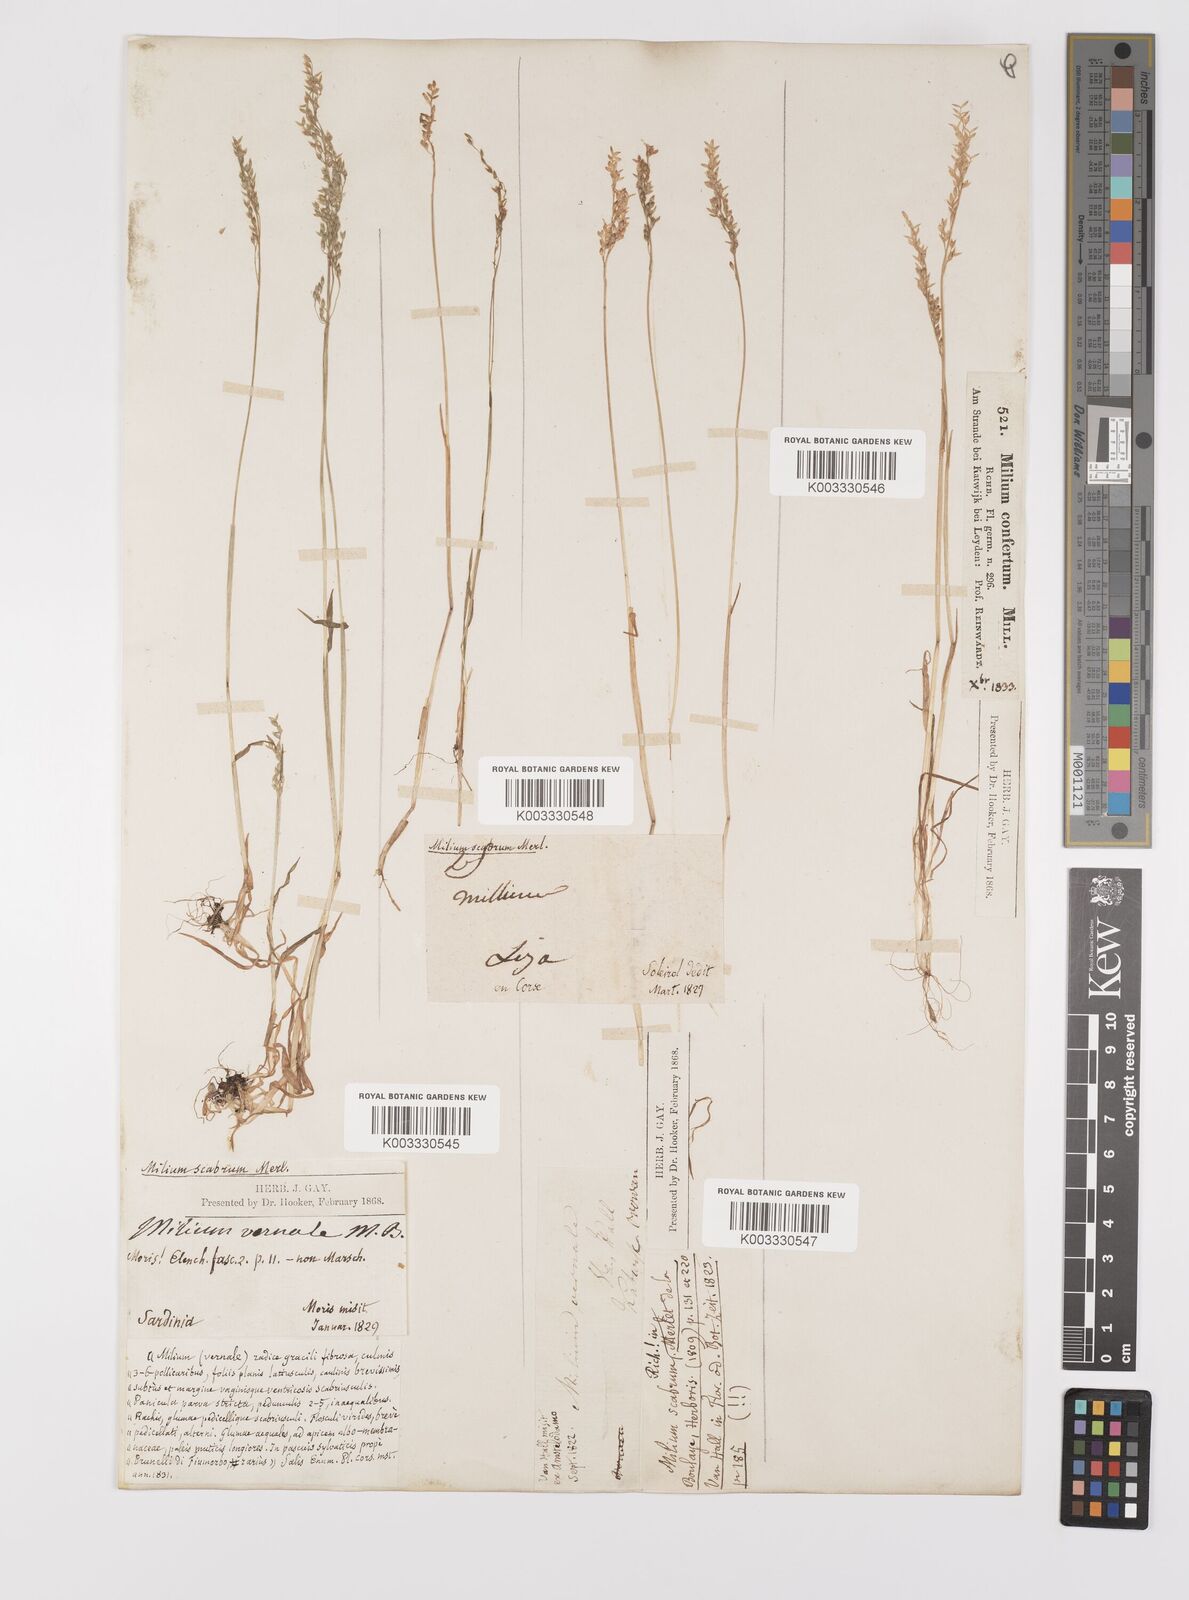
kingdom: Plantae
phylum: Tracheophyta
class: Liliopsida
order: Poales
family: Poaceae
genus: Milium
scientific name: Milium vernale
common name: Early millet
